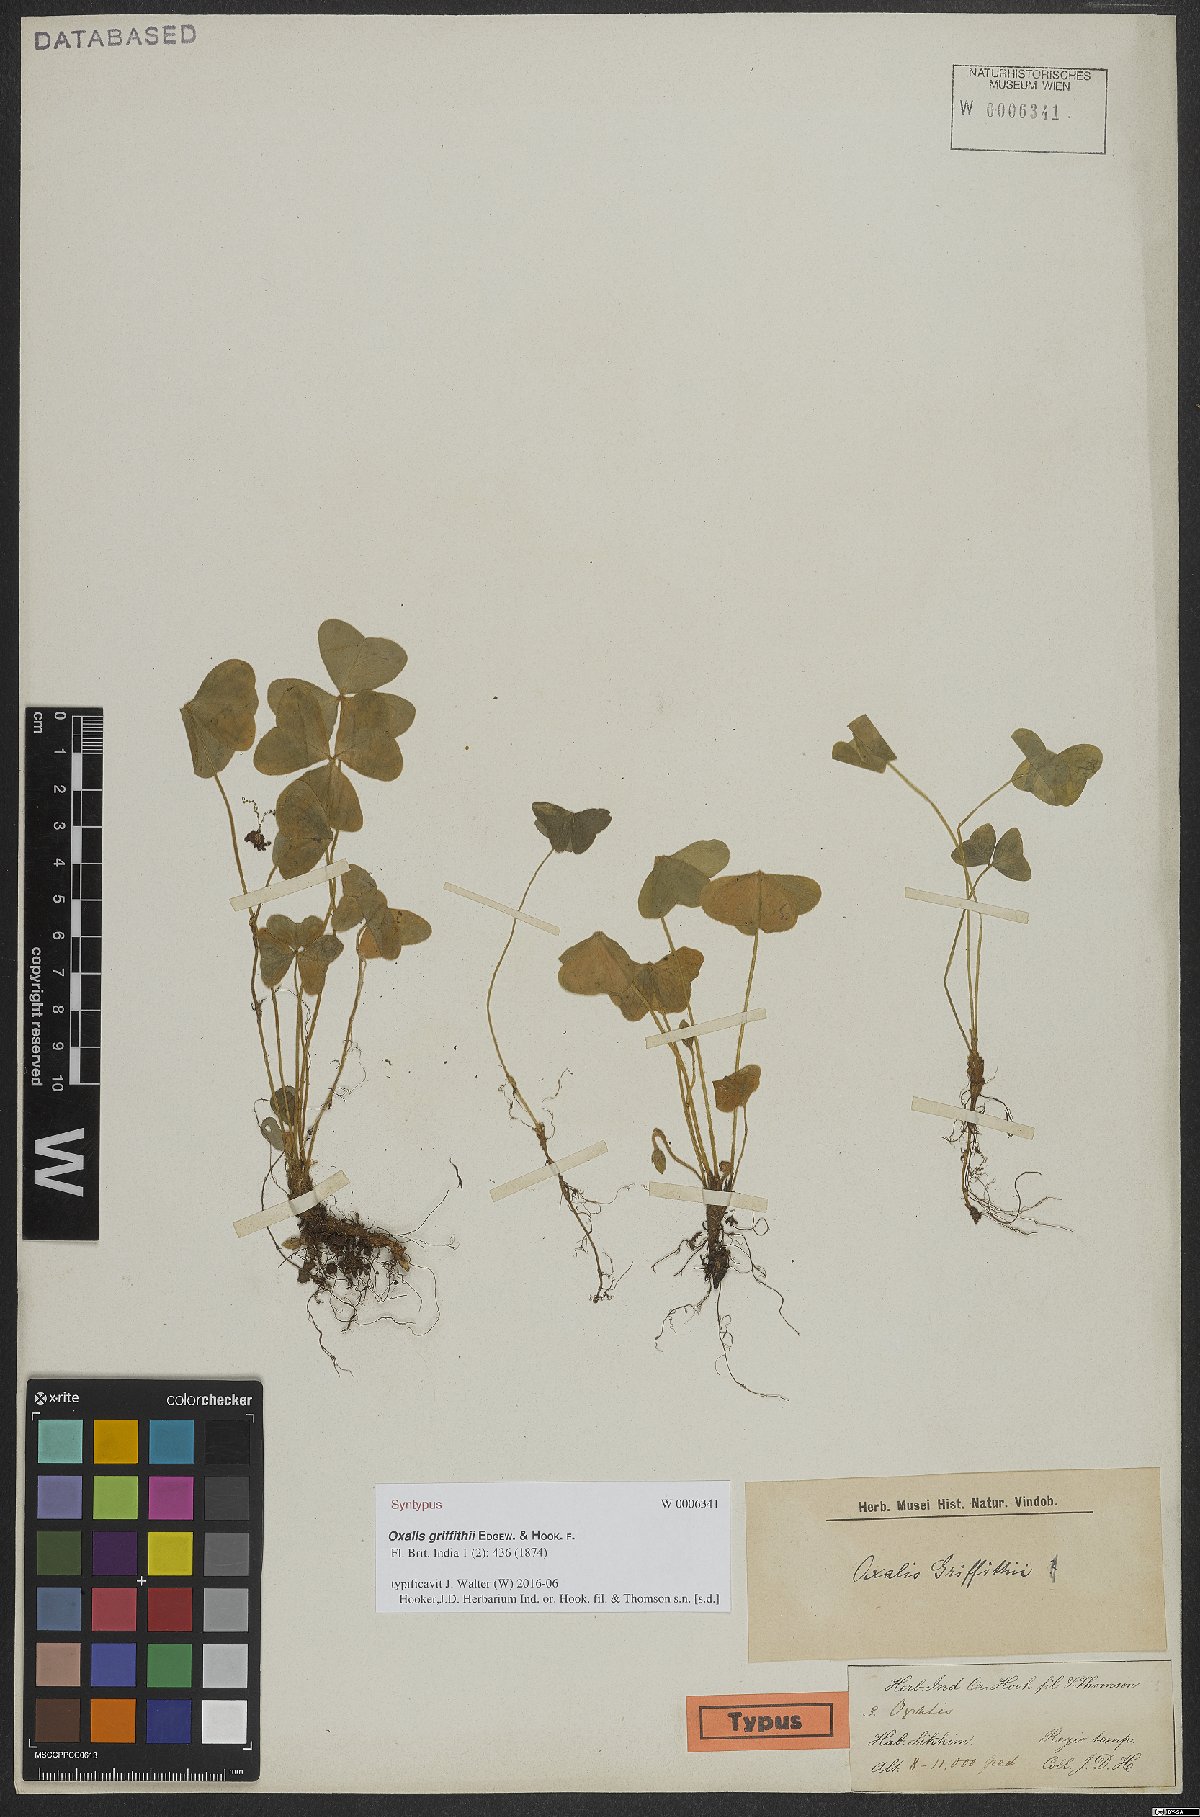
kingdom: Plantae
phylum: Tracheophyta
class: Magnoliopsida
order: Oxalidales
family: Oxalidaceae
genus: Oxalis
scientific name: Oxalis griffithii
